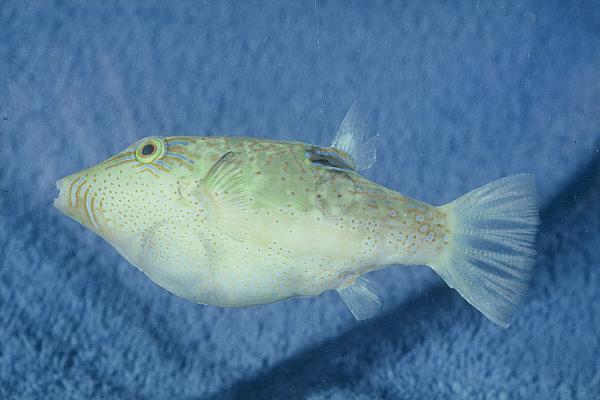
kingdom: Animalia
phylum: Chordata
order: Tetraodontiformes
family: Tetraodontidae
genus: Canthigaster
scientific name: Canthigaster smithae
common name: Bicolored toby
